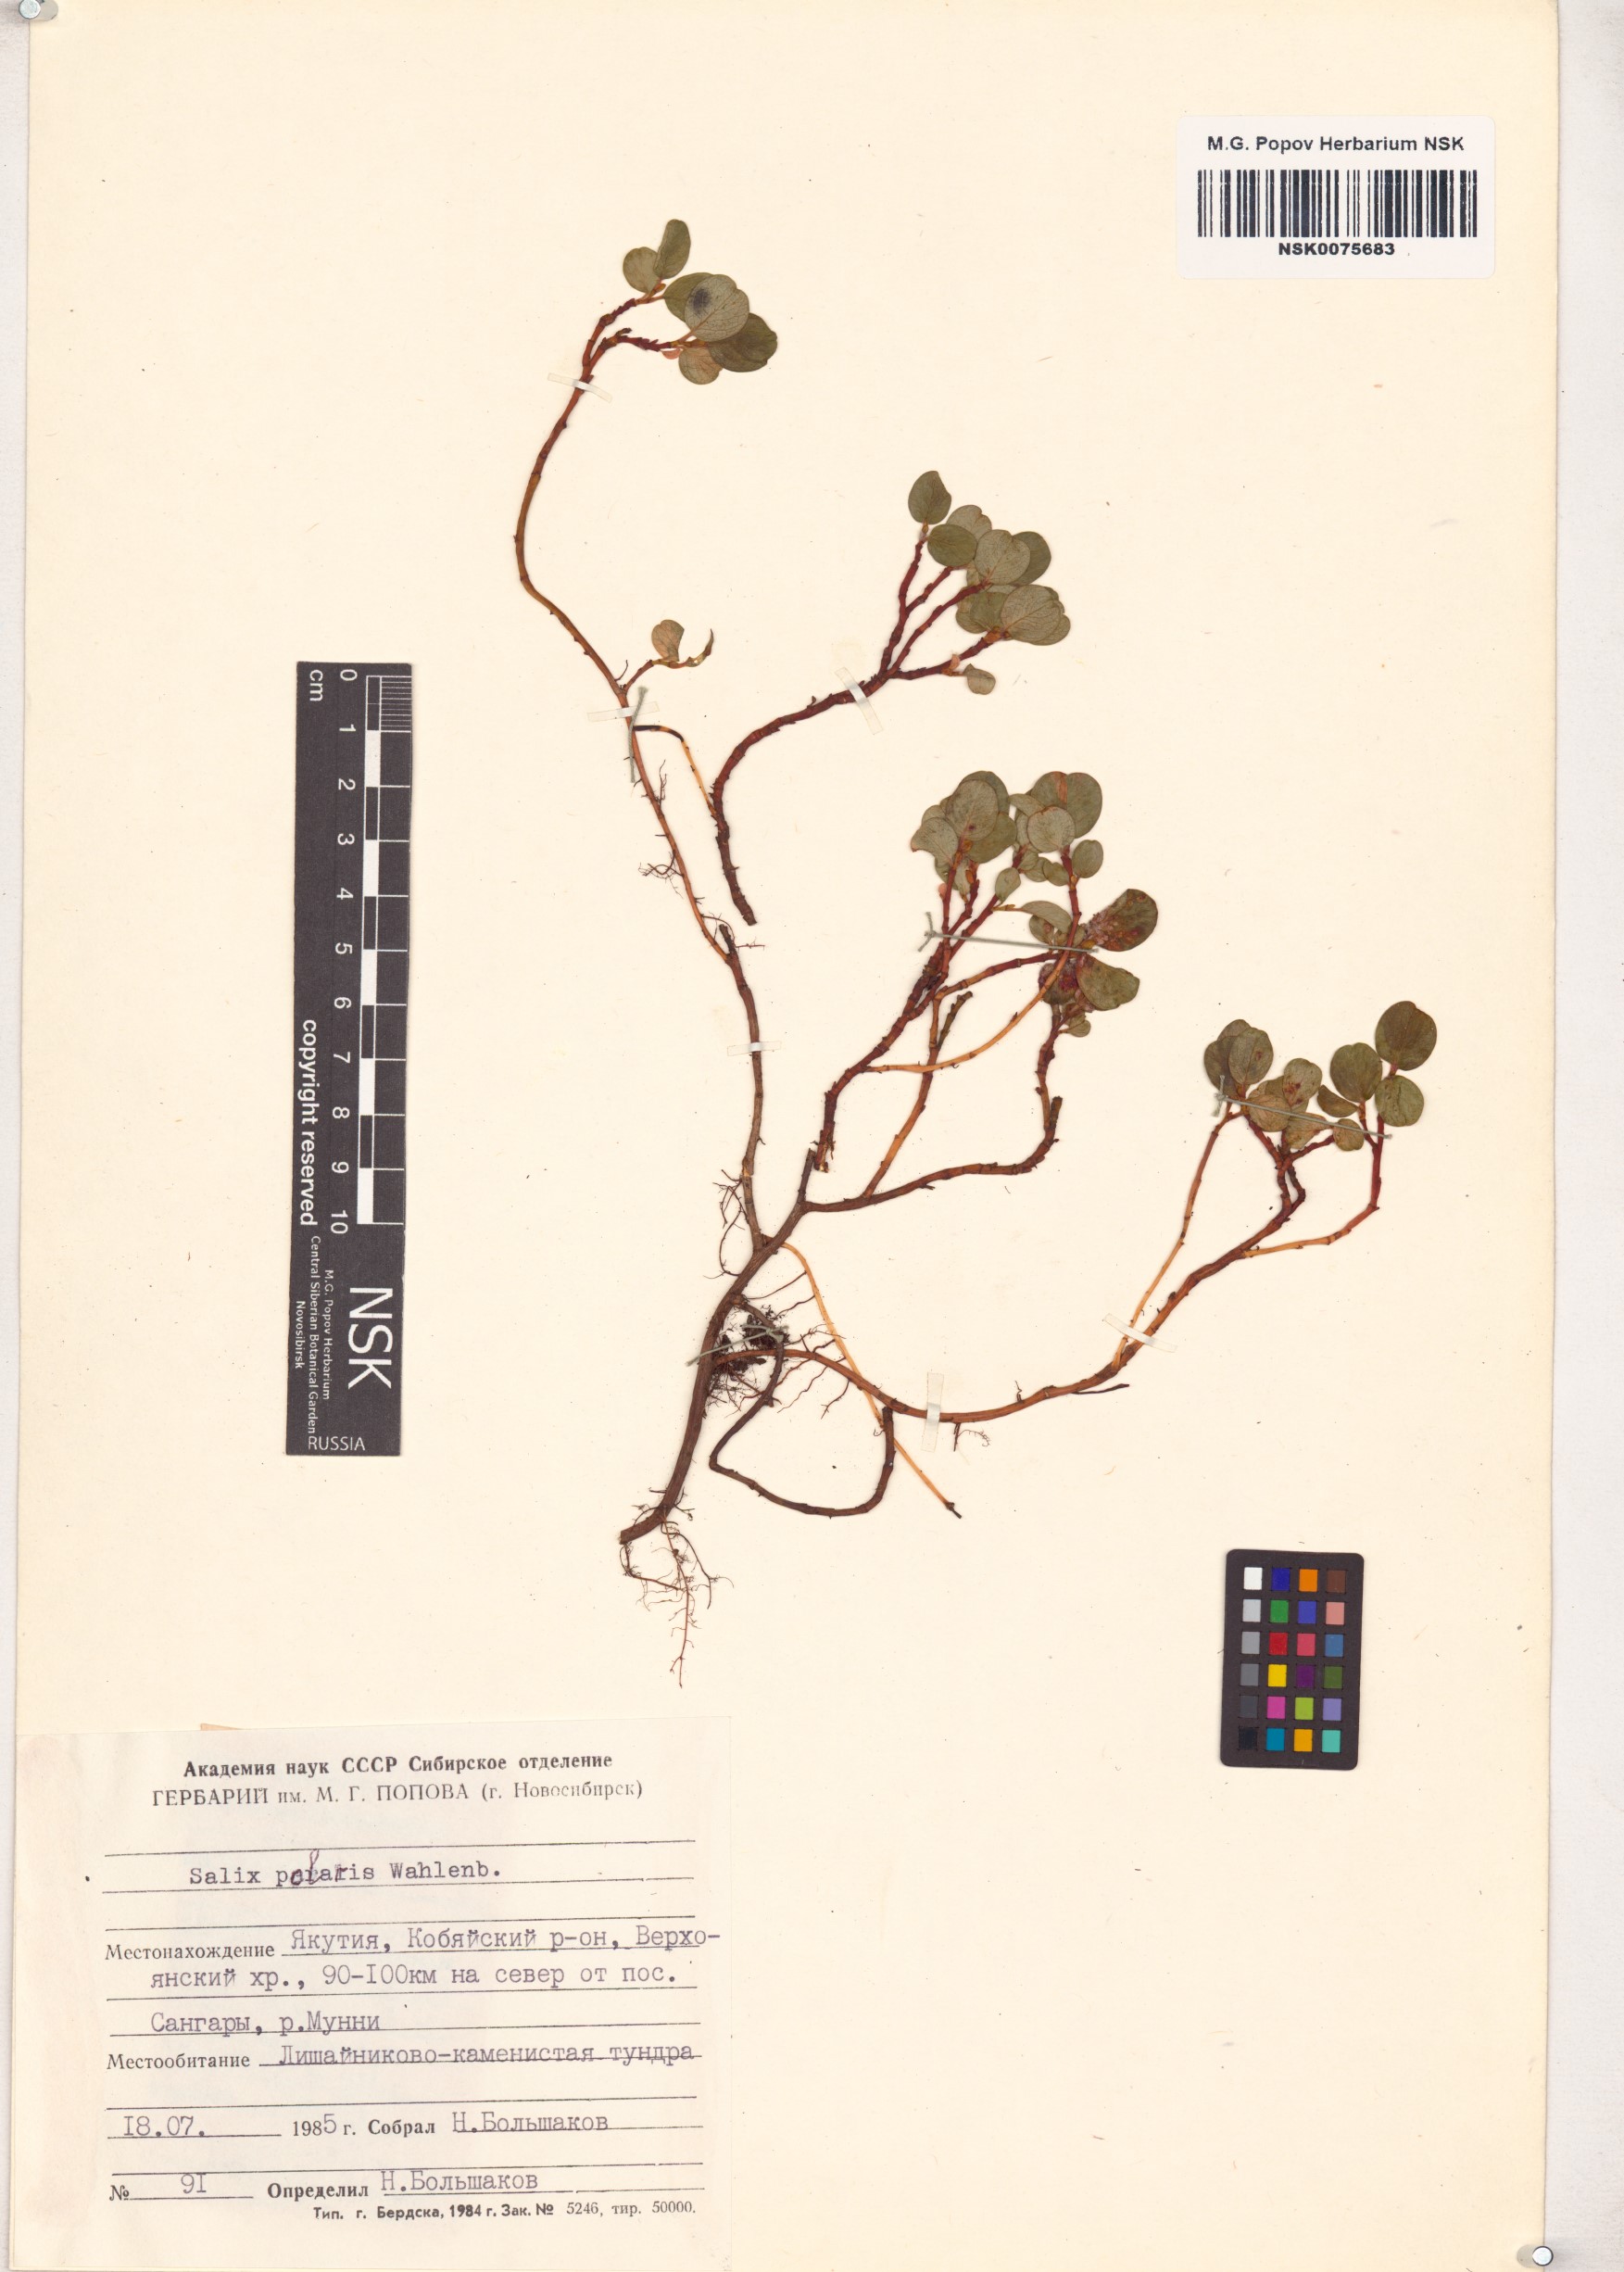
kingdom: Plantae
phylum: Tracheophyta
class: Magnoliopsida
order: Malpighiales
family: Salicaceae
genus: Salix
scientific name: Salix polaris
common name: Polar willow
